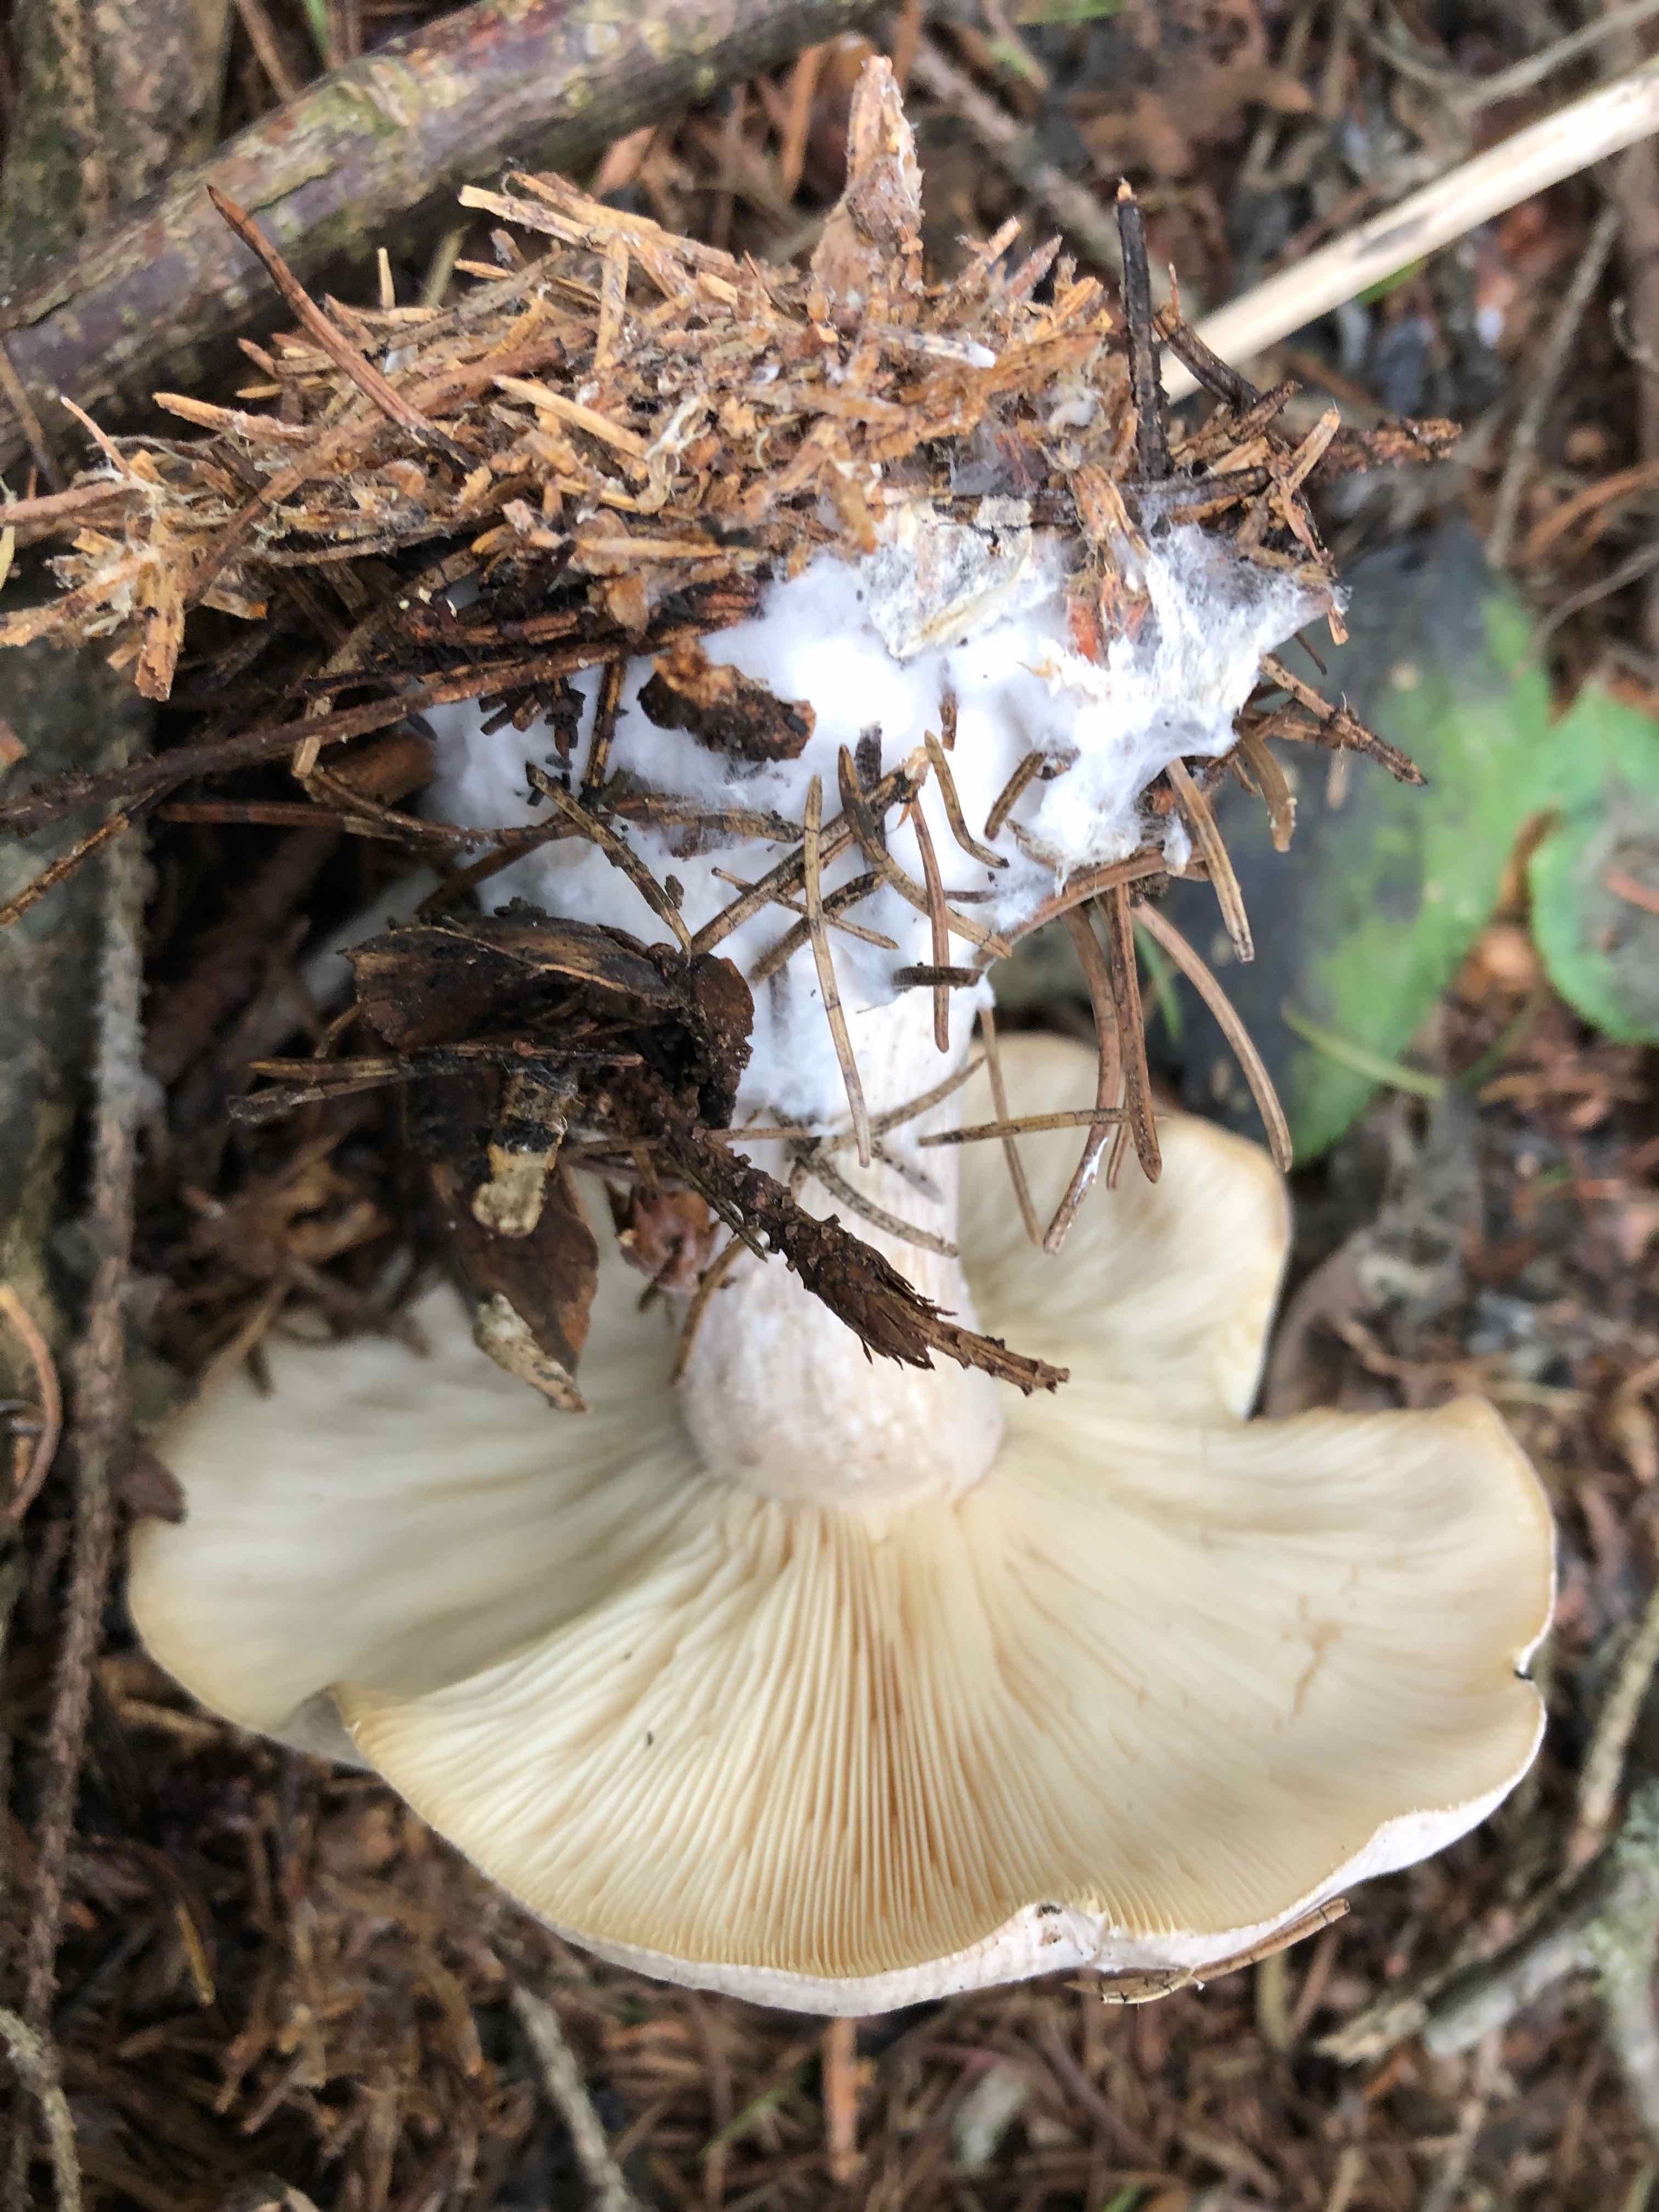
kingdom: Fungi
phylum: Basidiomycota
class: Agaricomycetes
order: Agaricales
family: Tricholomataceae
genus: Clitocybe
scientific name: Clitocybe nebularis
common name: tåge-tragthat
